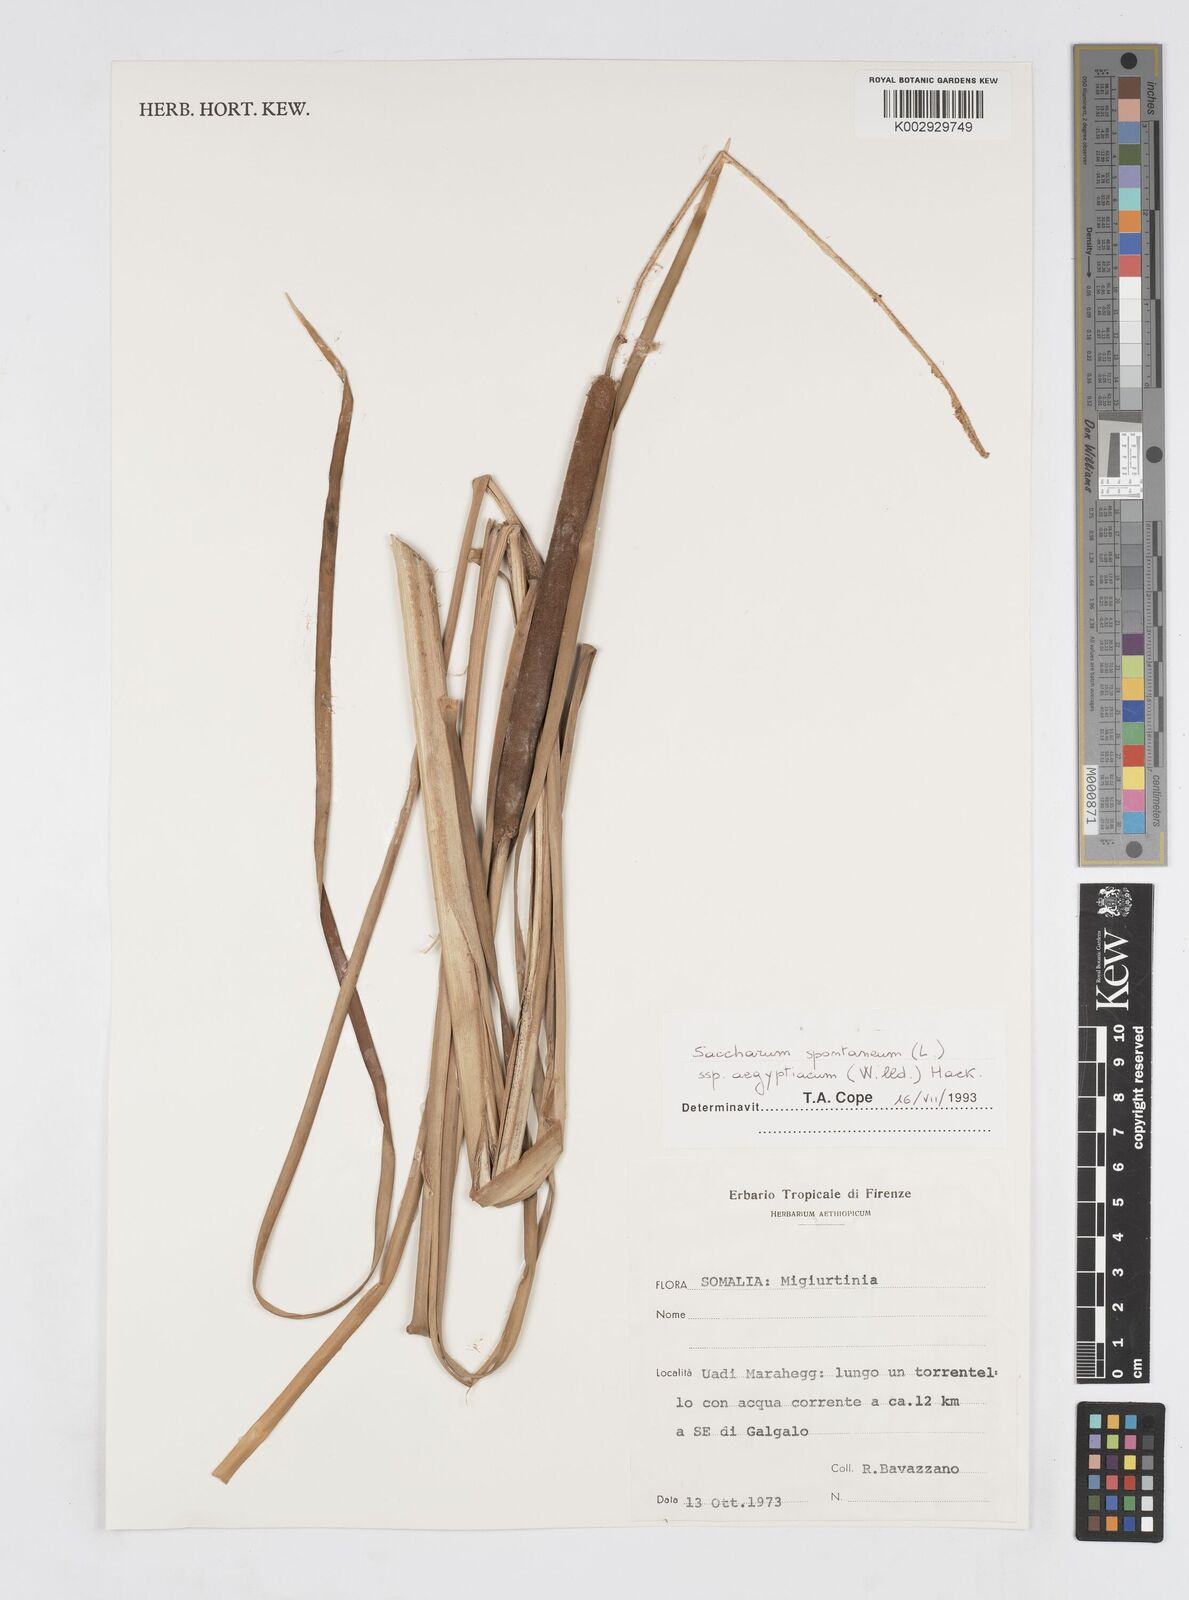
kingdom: Plantae
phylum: Tracheophyta
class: Liliopsida
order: Poales
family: Poaceae
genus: Saccharum
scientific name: Saccharum spontaneum
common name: Wild sugarcane
